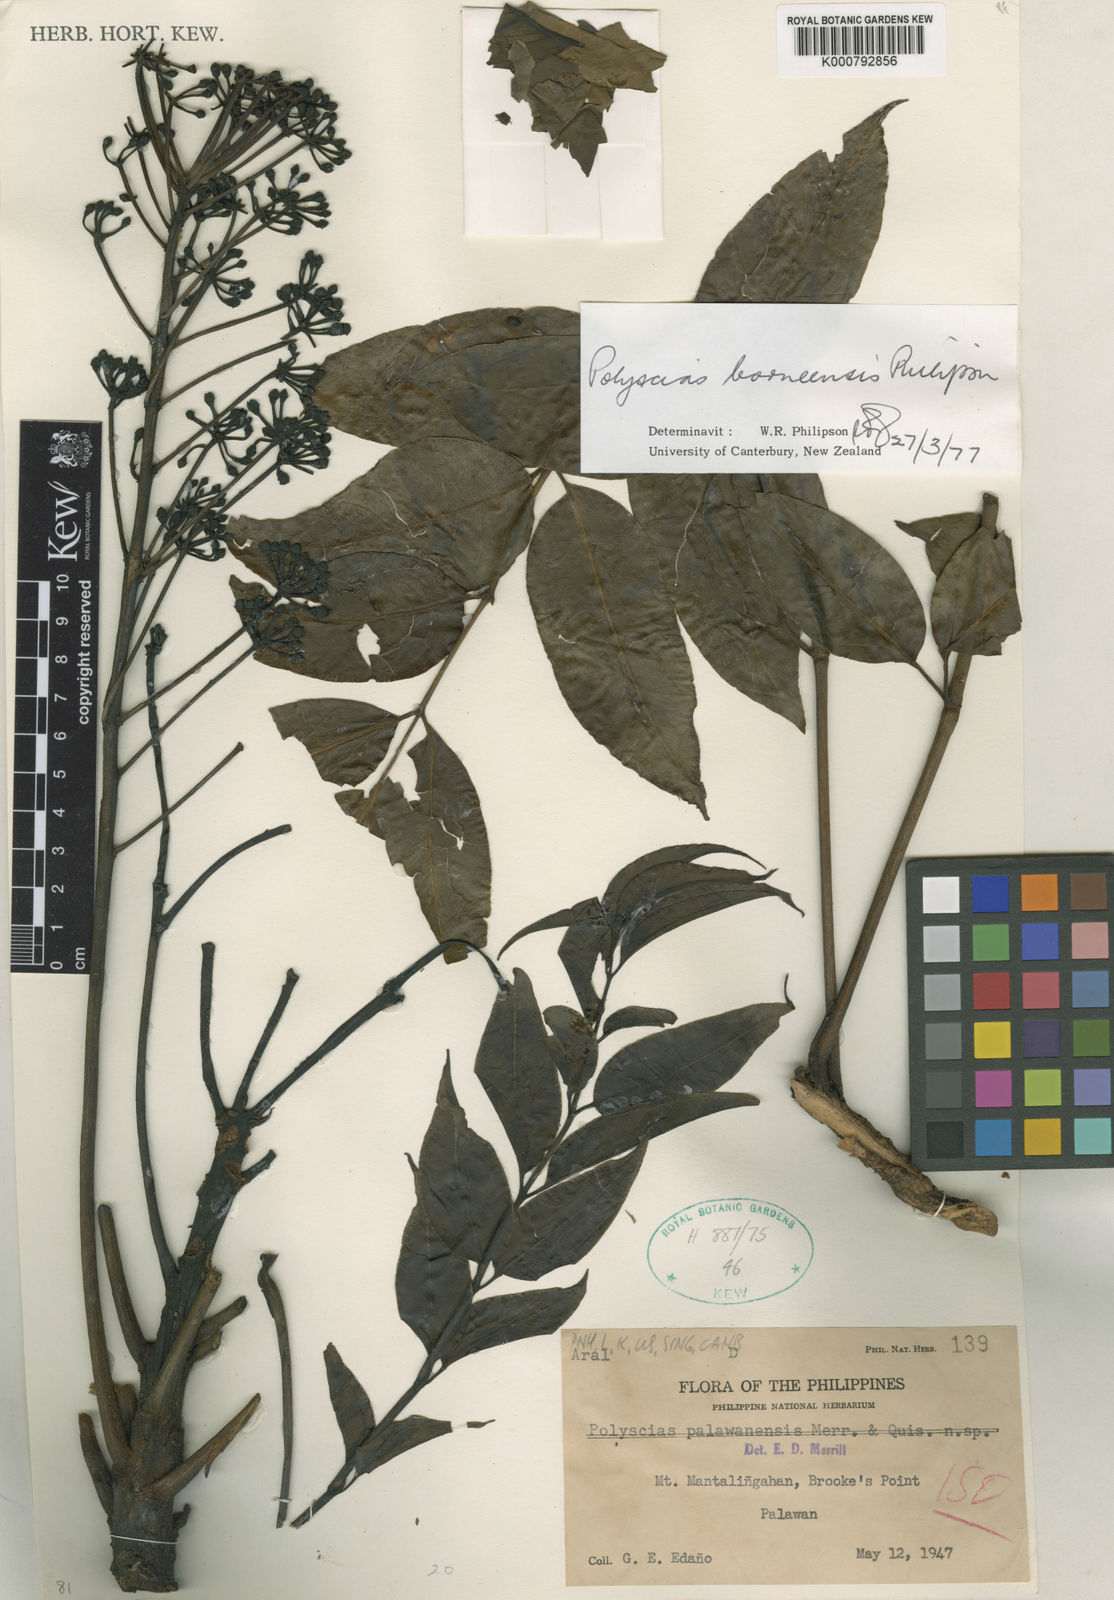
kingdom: Plantae
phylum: Tracheophyta
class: Magnoliopsida
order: Apiales
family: Araliaceae
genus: Polyscias
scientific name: Polyscias borneensis
